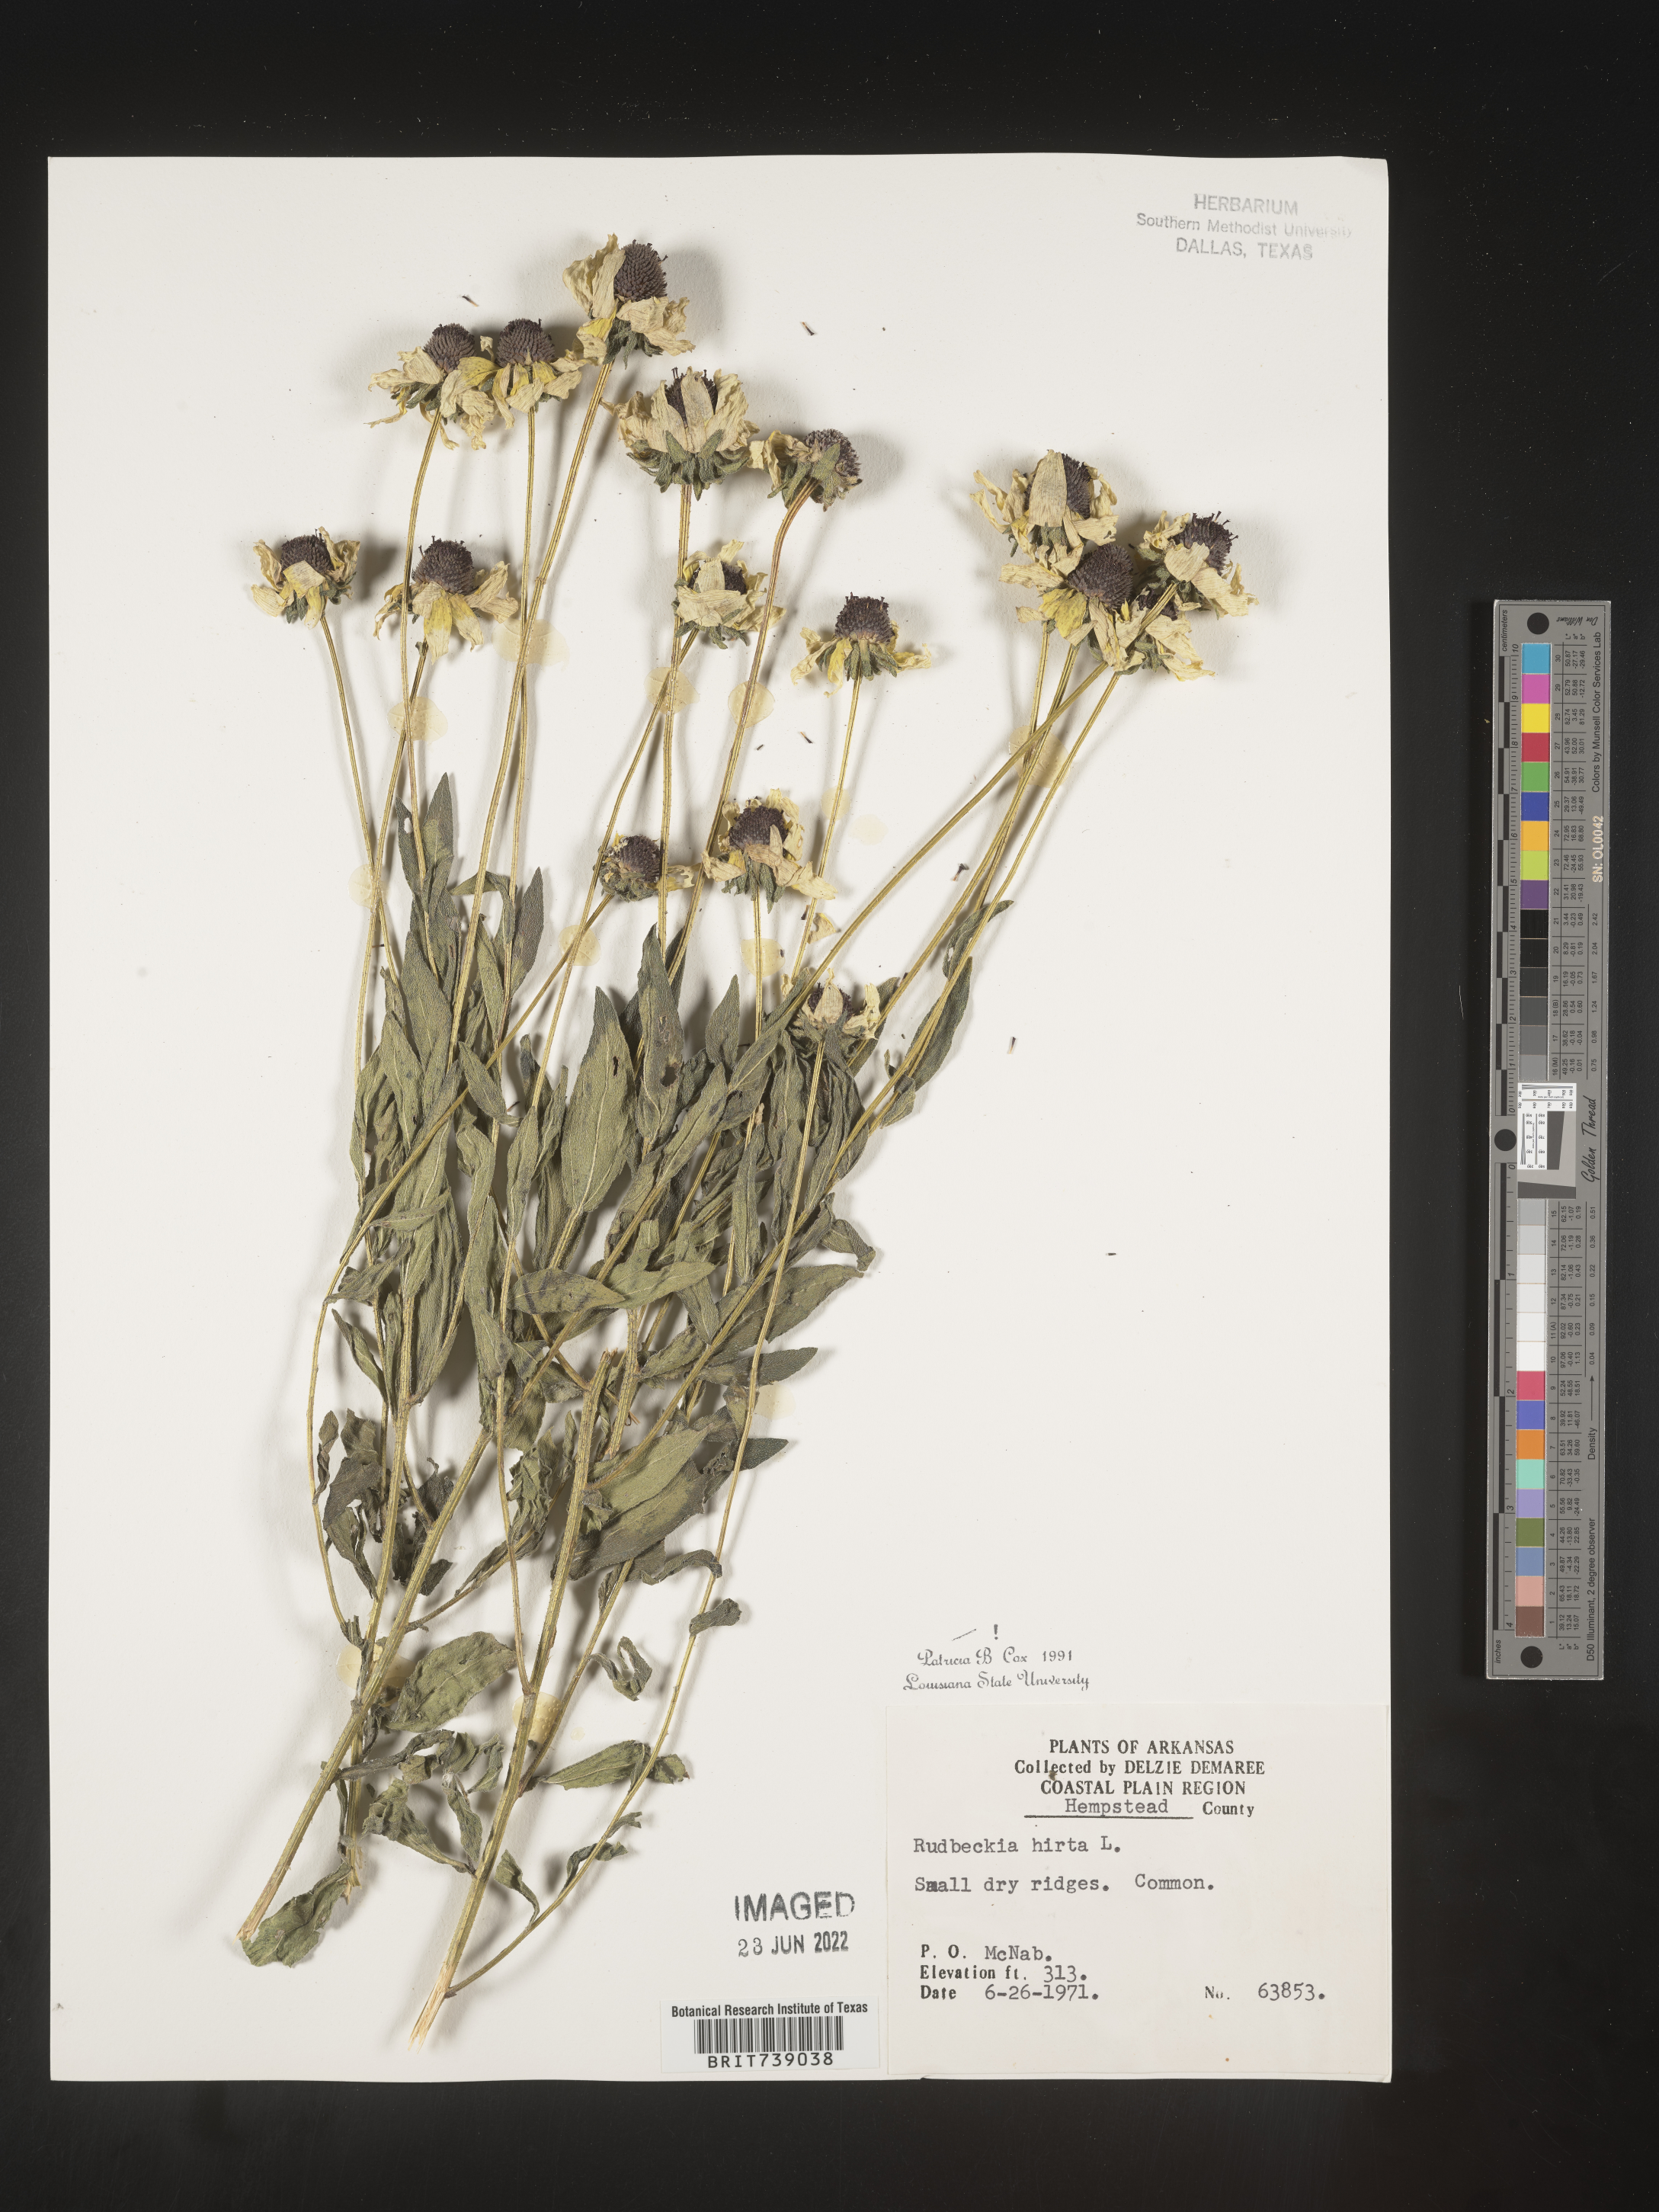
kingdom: Plantae
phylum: Tracheophyta
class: Magnoliopsida
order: Asterales
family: Asteraceae
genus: Rudbeckia
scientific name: Rudbeckia hirta
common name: Black-eyed-susan
